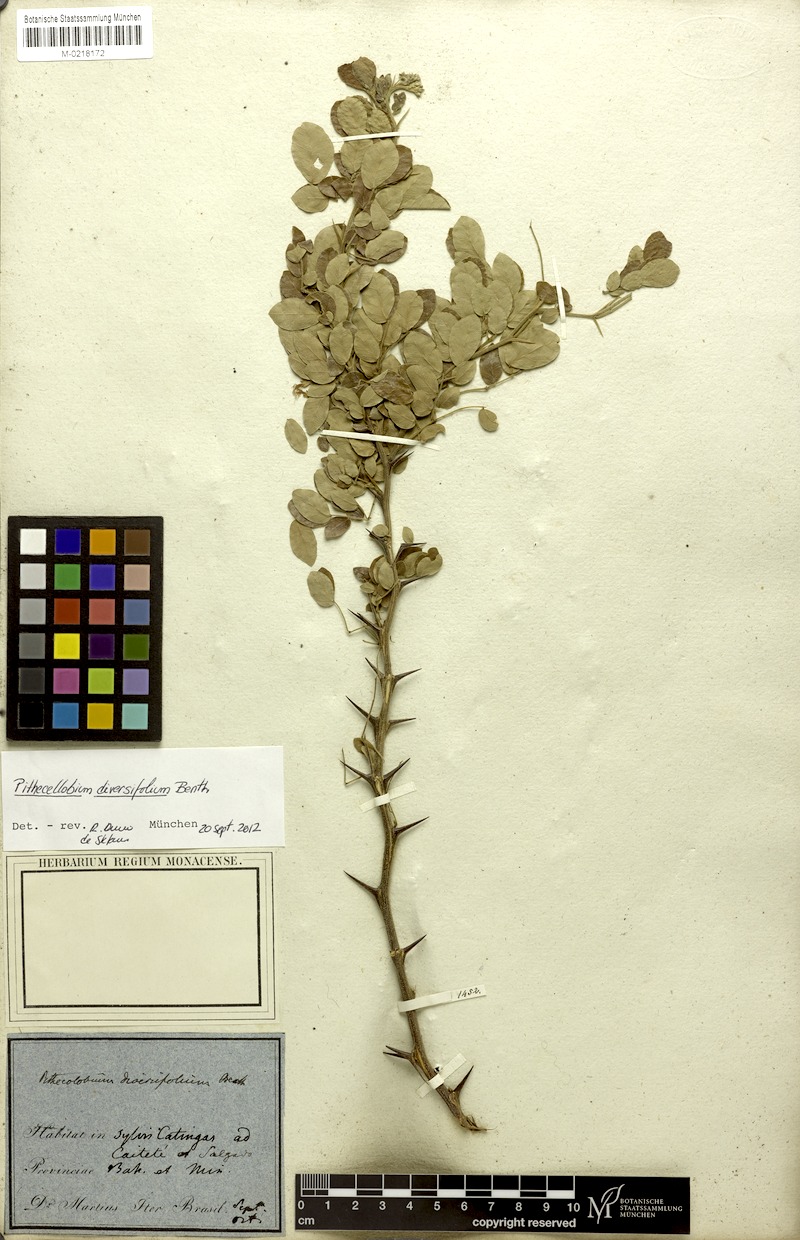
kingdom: Plantae
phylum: Tracheophyta
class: Magnoliopsida
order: Fabales
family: Fabaceae
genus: Pithecellobium
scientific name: Pithecellobium diversifolium
